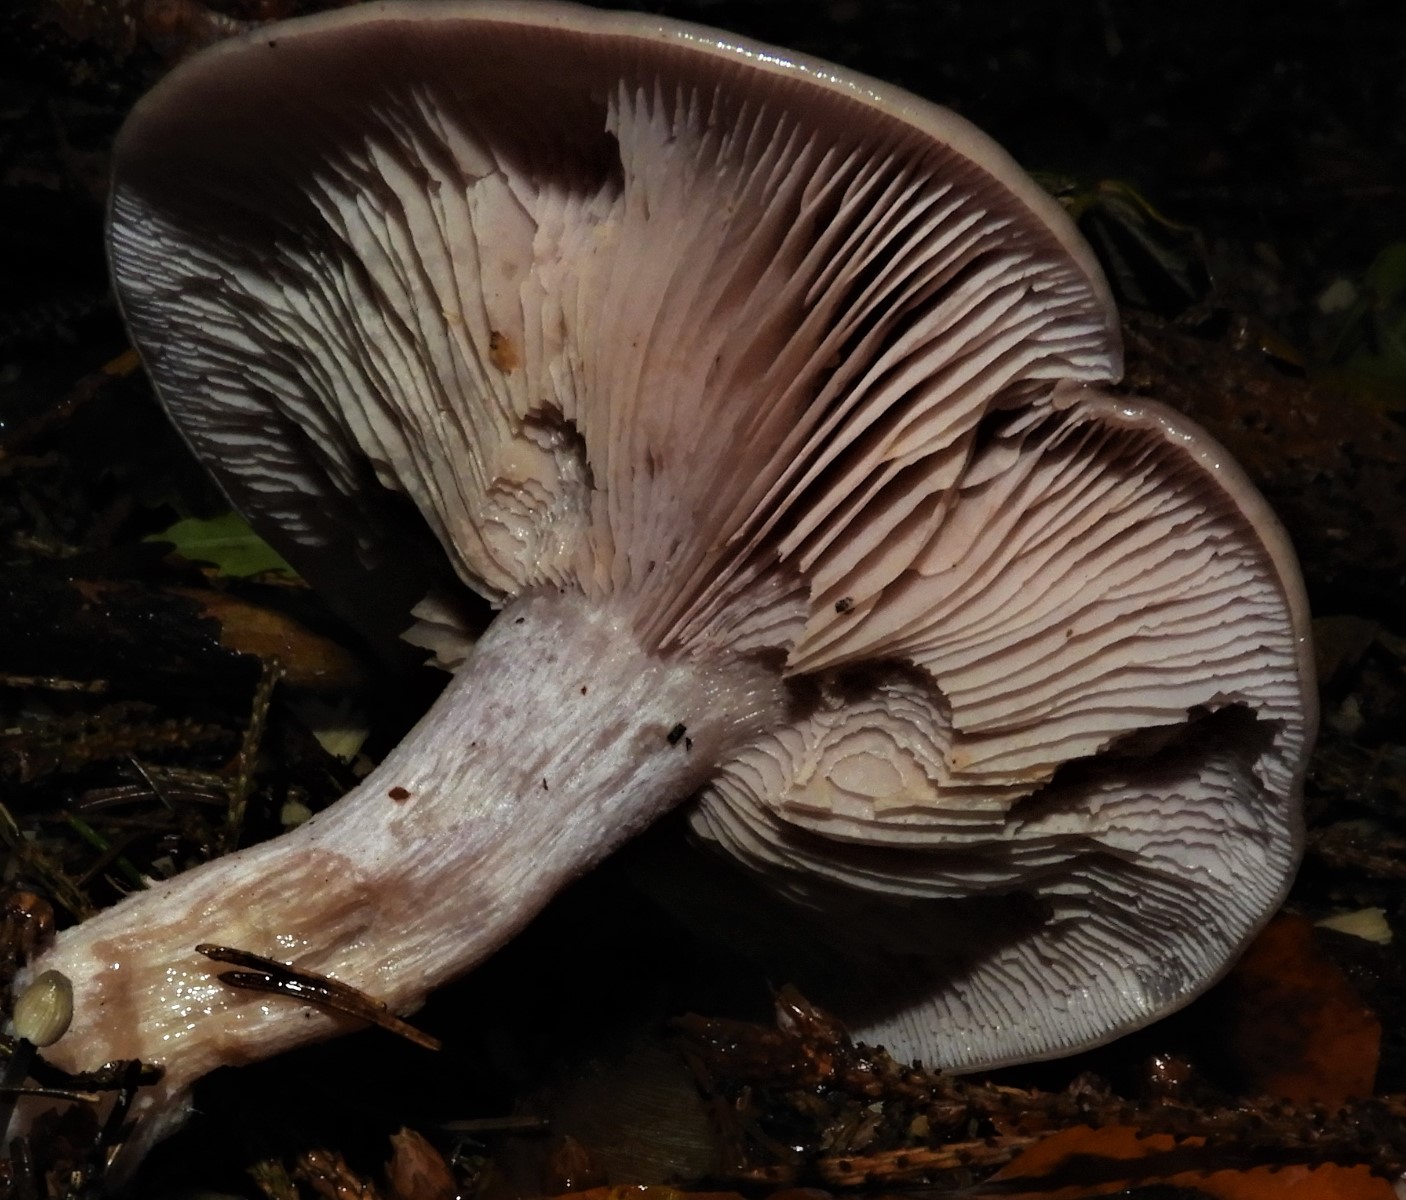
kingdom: Fungi
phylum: Basidiomycota
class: Agaricomycetes
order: Agaricales
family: Tricholomataceae
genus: Lepista
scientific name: Lepista nuda
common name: violet hekseringshat
